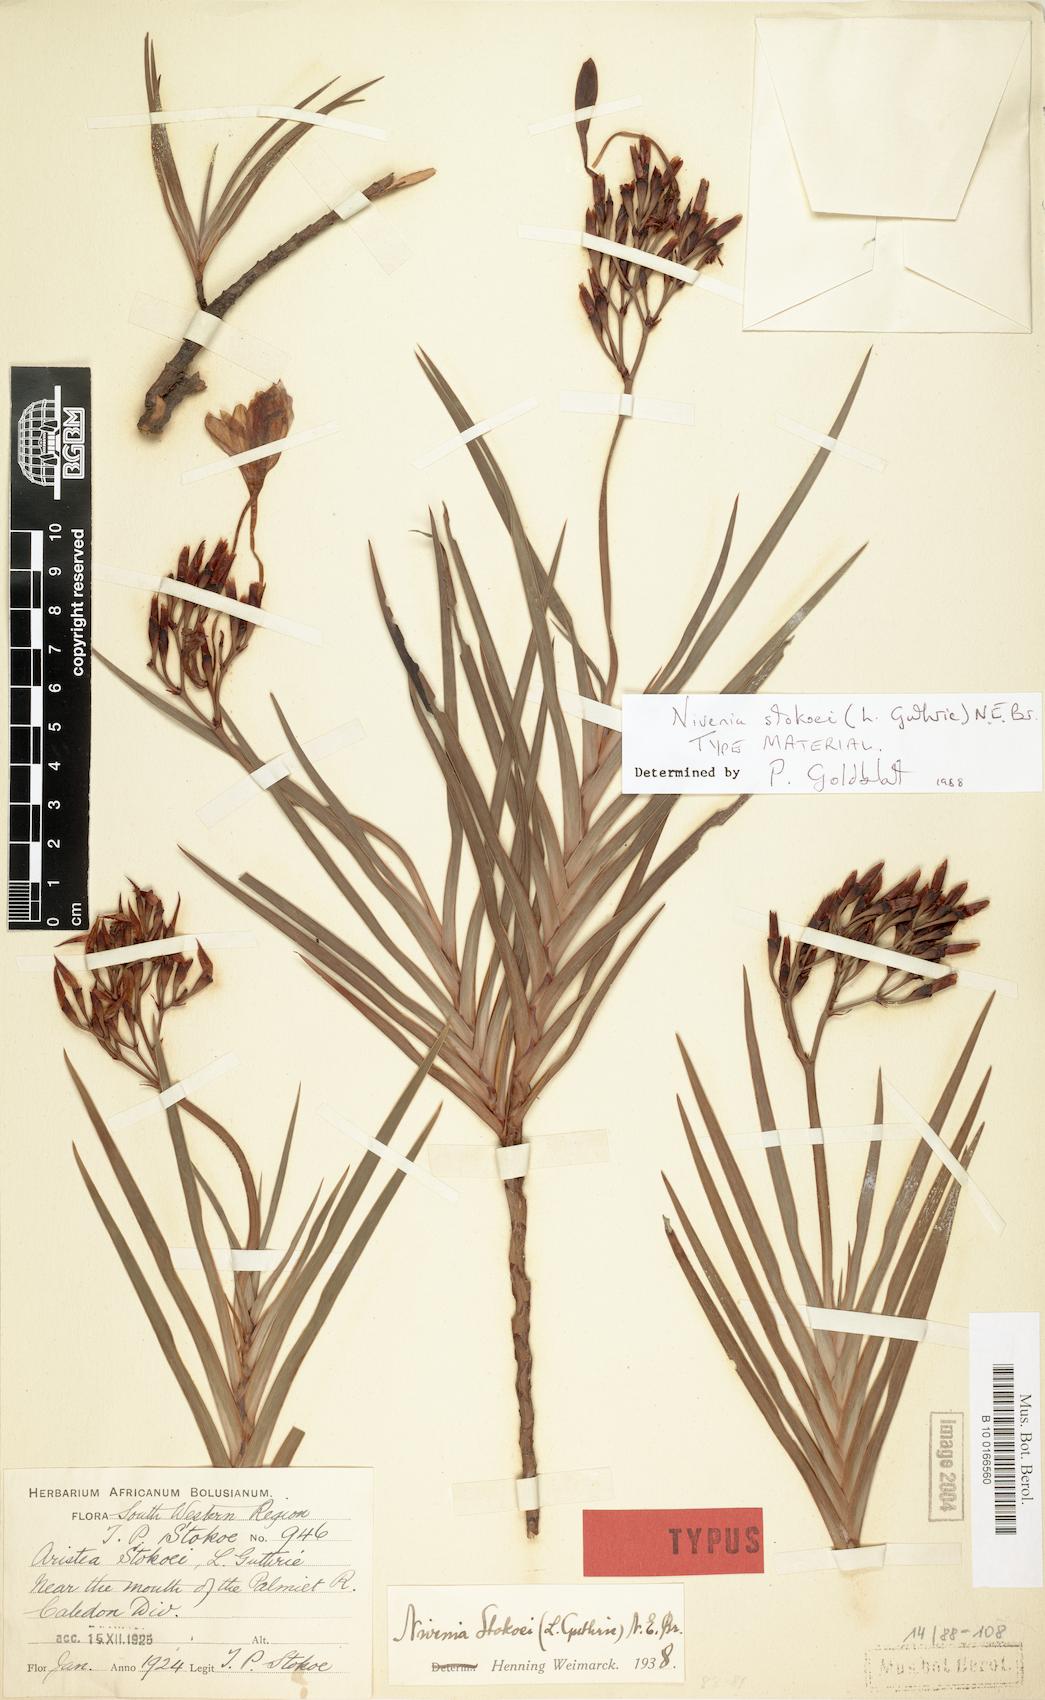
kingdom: Plantae
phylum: Tracheophyta
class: Liliopsida
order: Asparagales
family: Iridaceae
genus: Nivenia
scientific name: Nivenia stokoei
